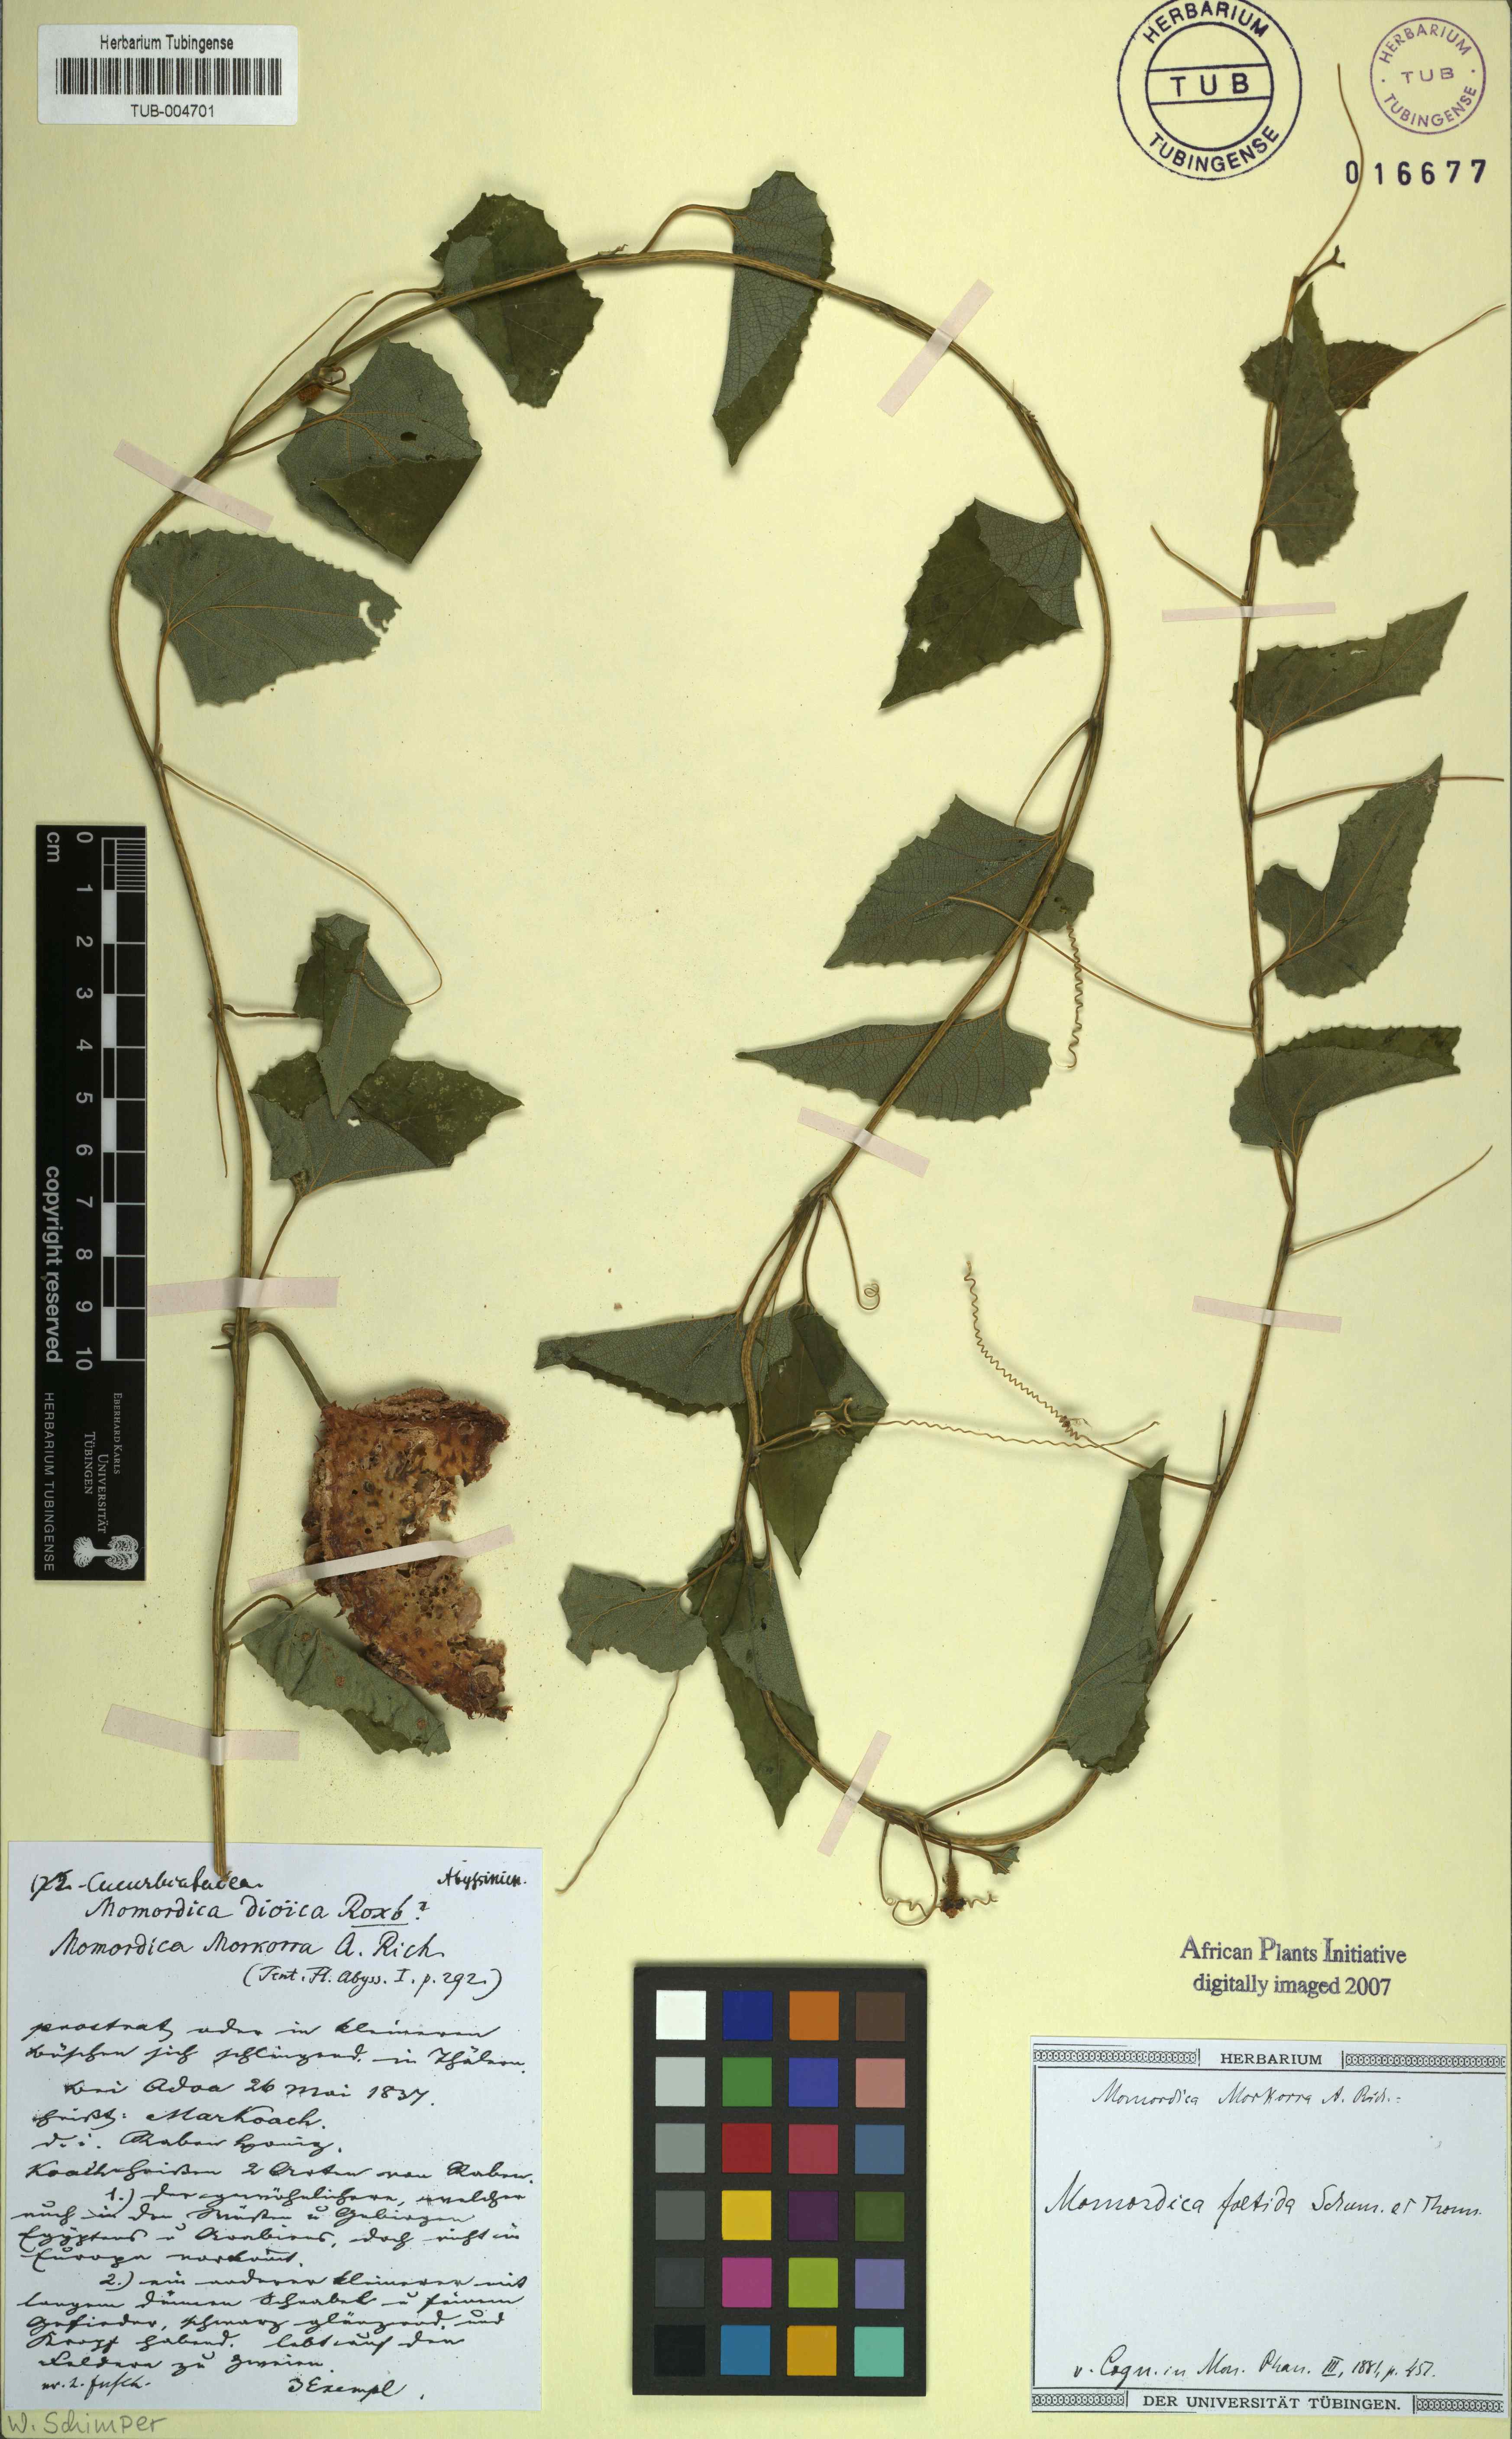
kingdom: Plantae
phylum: Tracheophyta
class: Magnoliopsida
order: Cucurbitales
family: Cucurbitaceae
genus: Momordica
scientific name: Momordica foetida
